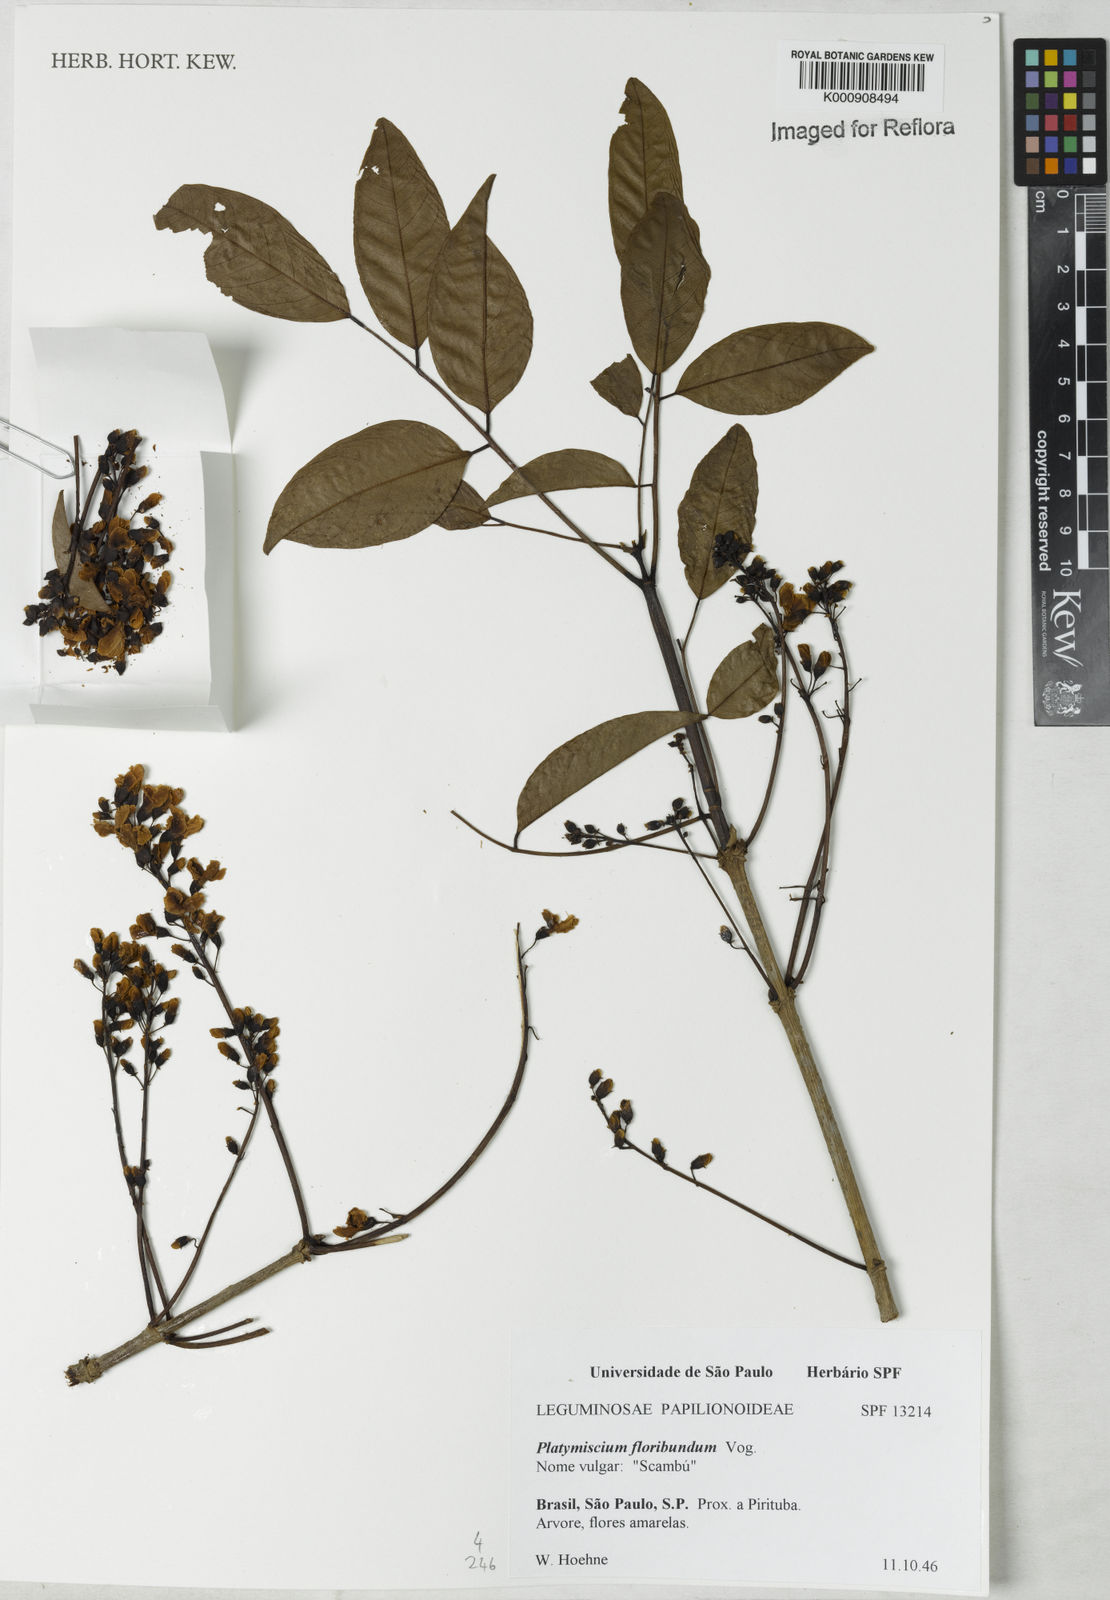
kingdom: Plantae
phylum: Tracheophyta
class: Magnoliopsida
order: Fabales
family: Fabaceae
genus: Platymiscium
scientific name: Platymiscium floribundum
